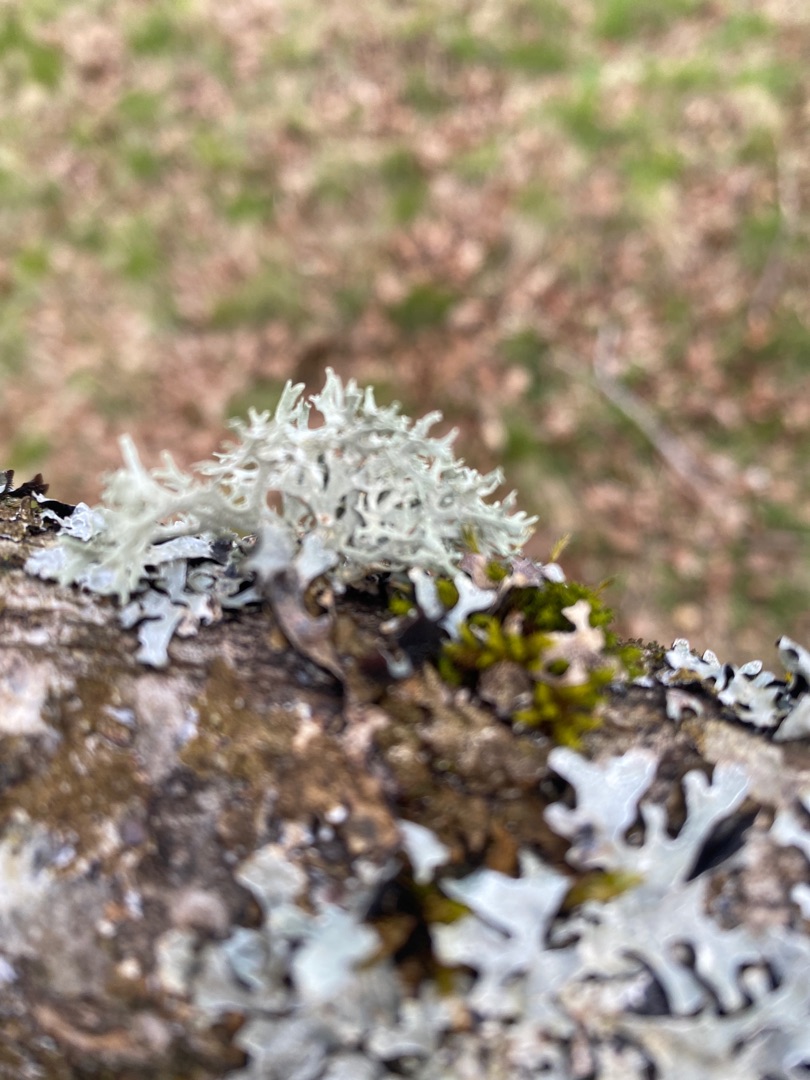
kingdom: Fungi
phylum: Ascomycota
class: Lecanoromycetes
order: Lecanorales
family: Parmeliaceae
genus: Evernia
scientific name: Evernia prunastri
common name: Almindelig slåenlav
